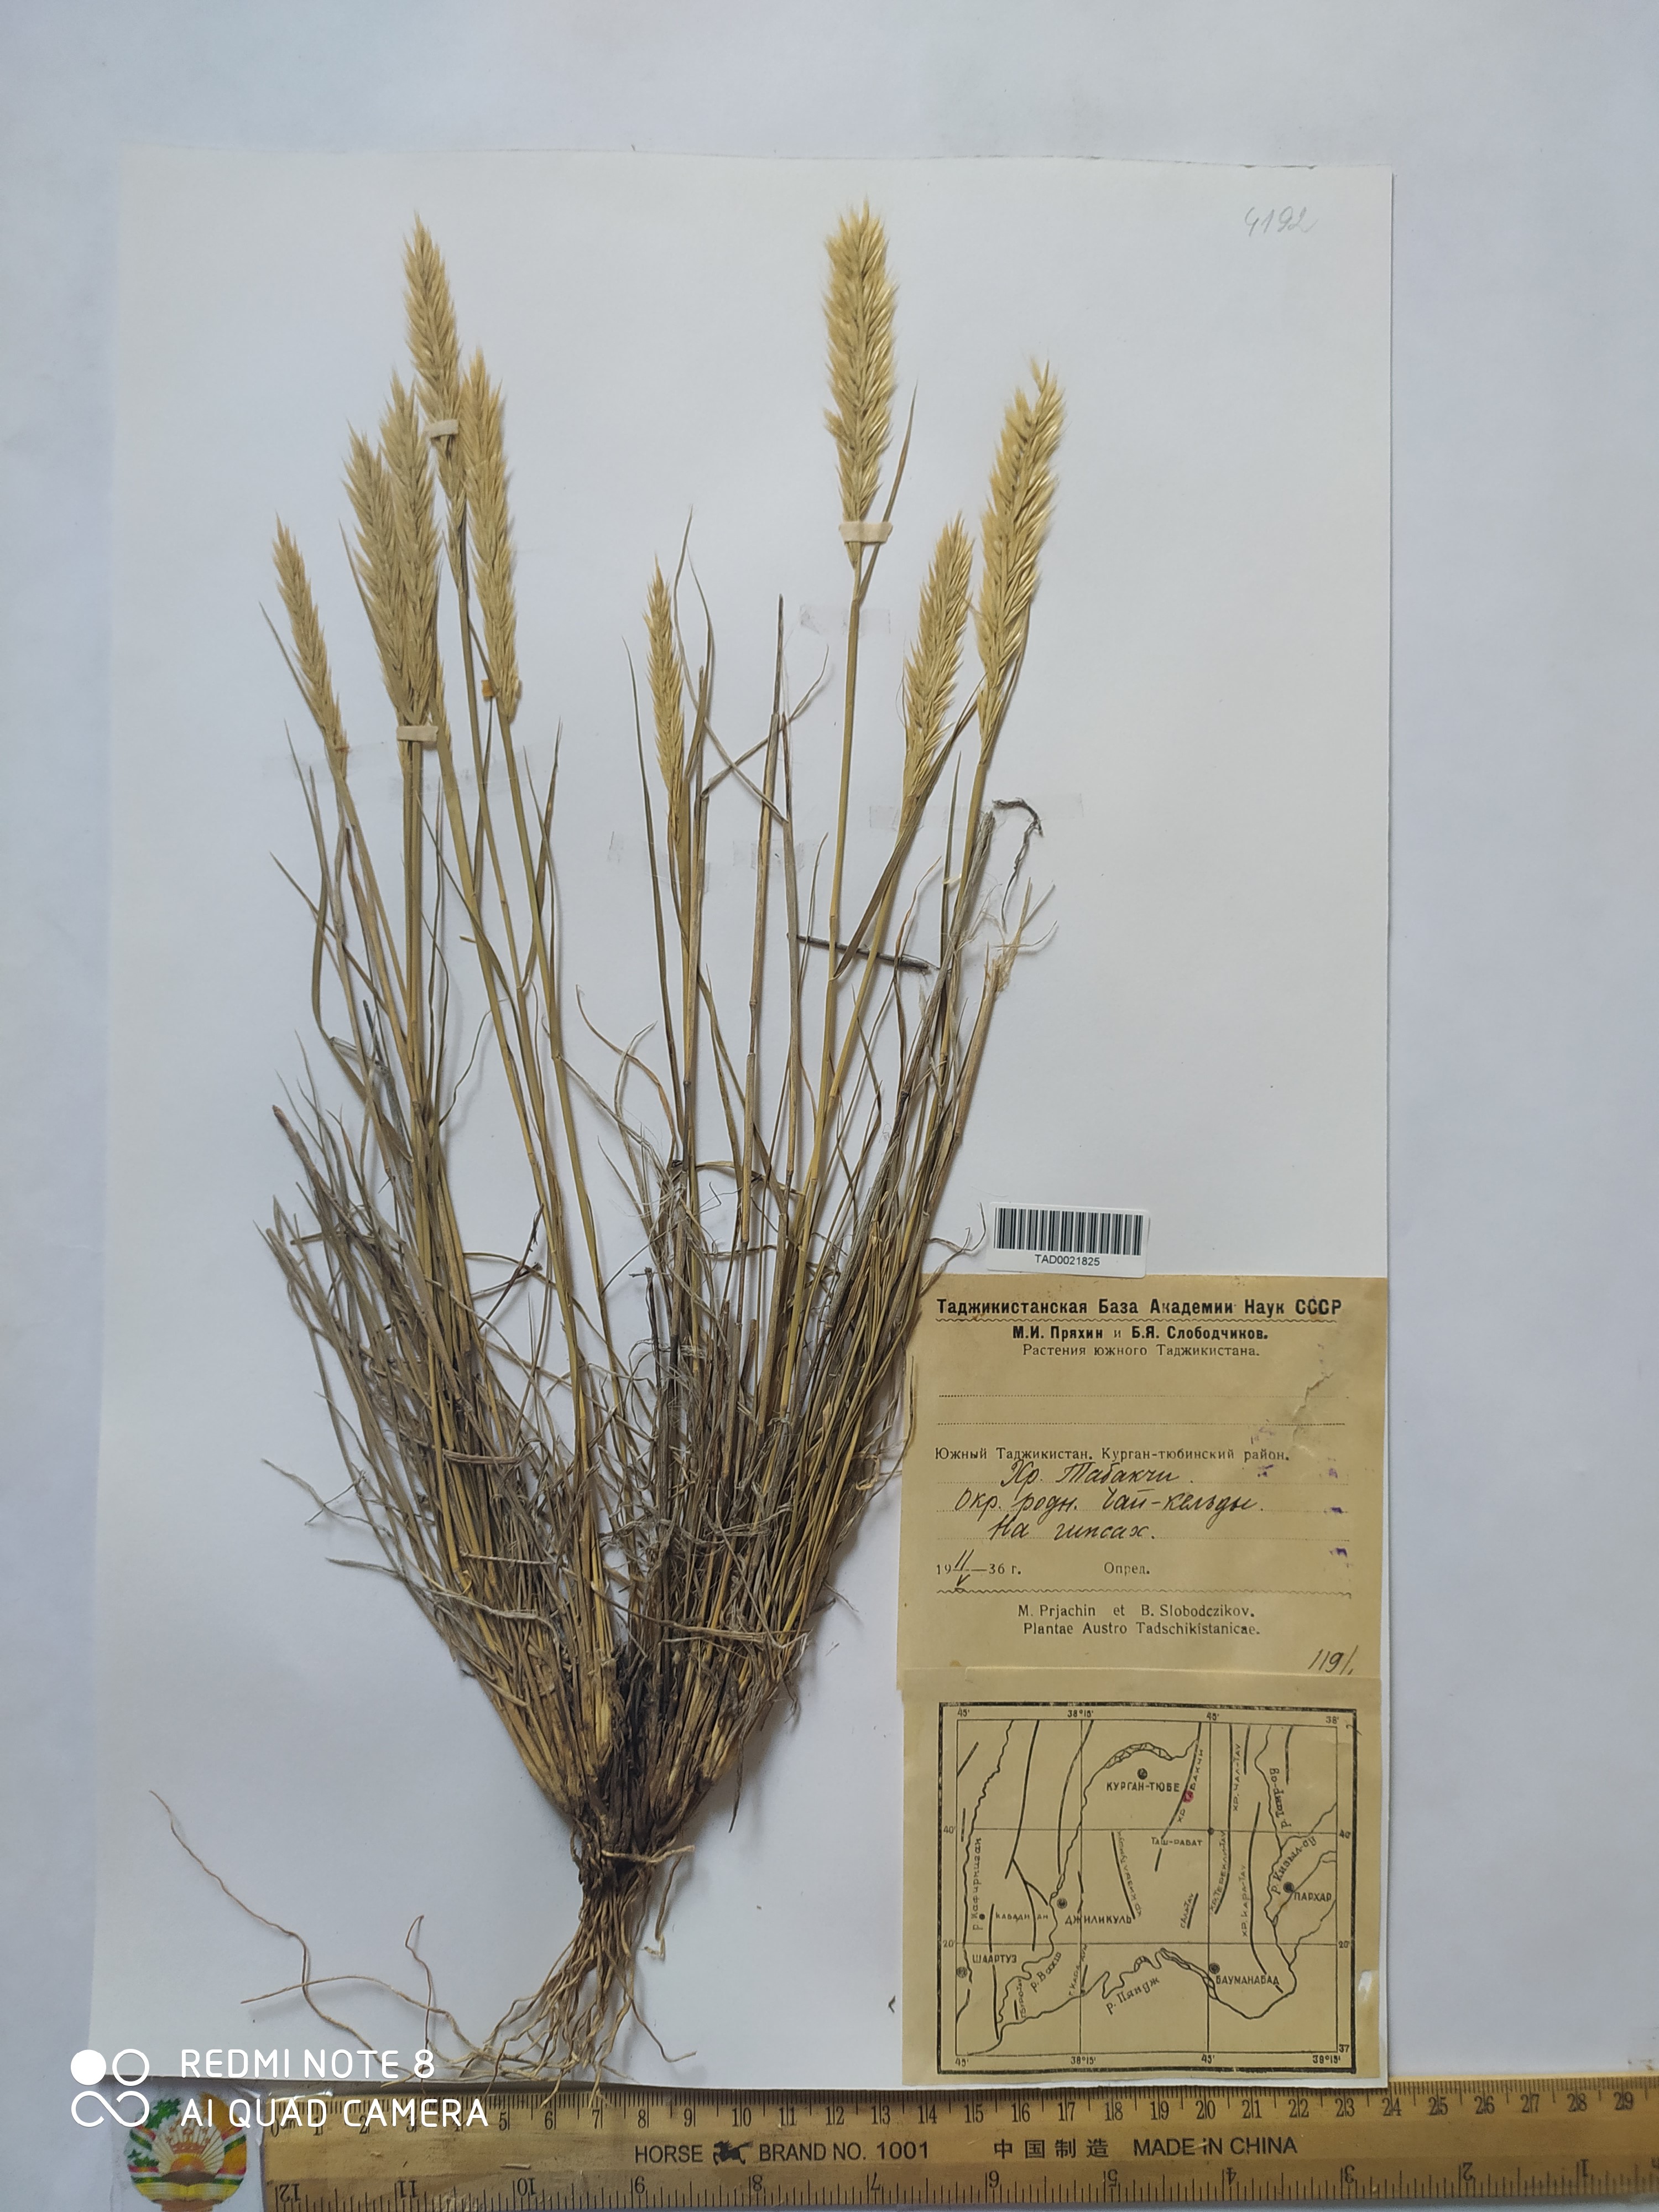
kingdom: Plantae
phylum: Tracheophyta
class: Liliopsida
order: Poales
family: Poaceae
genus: Enneapogon
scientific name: Enneapogon persicus
